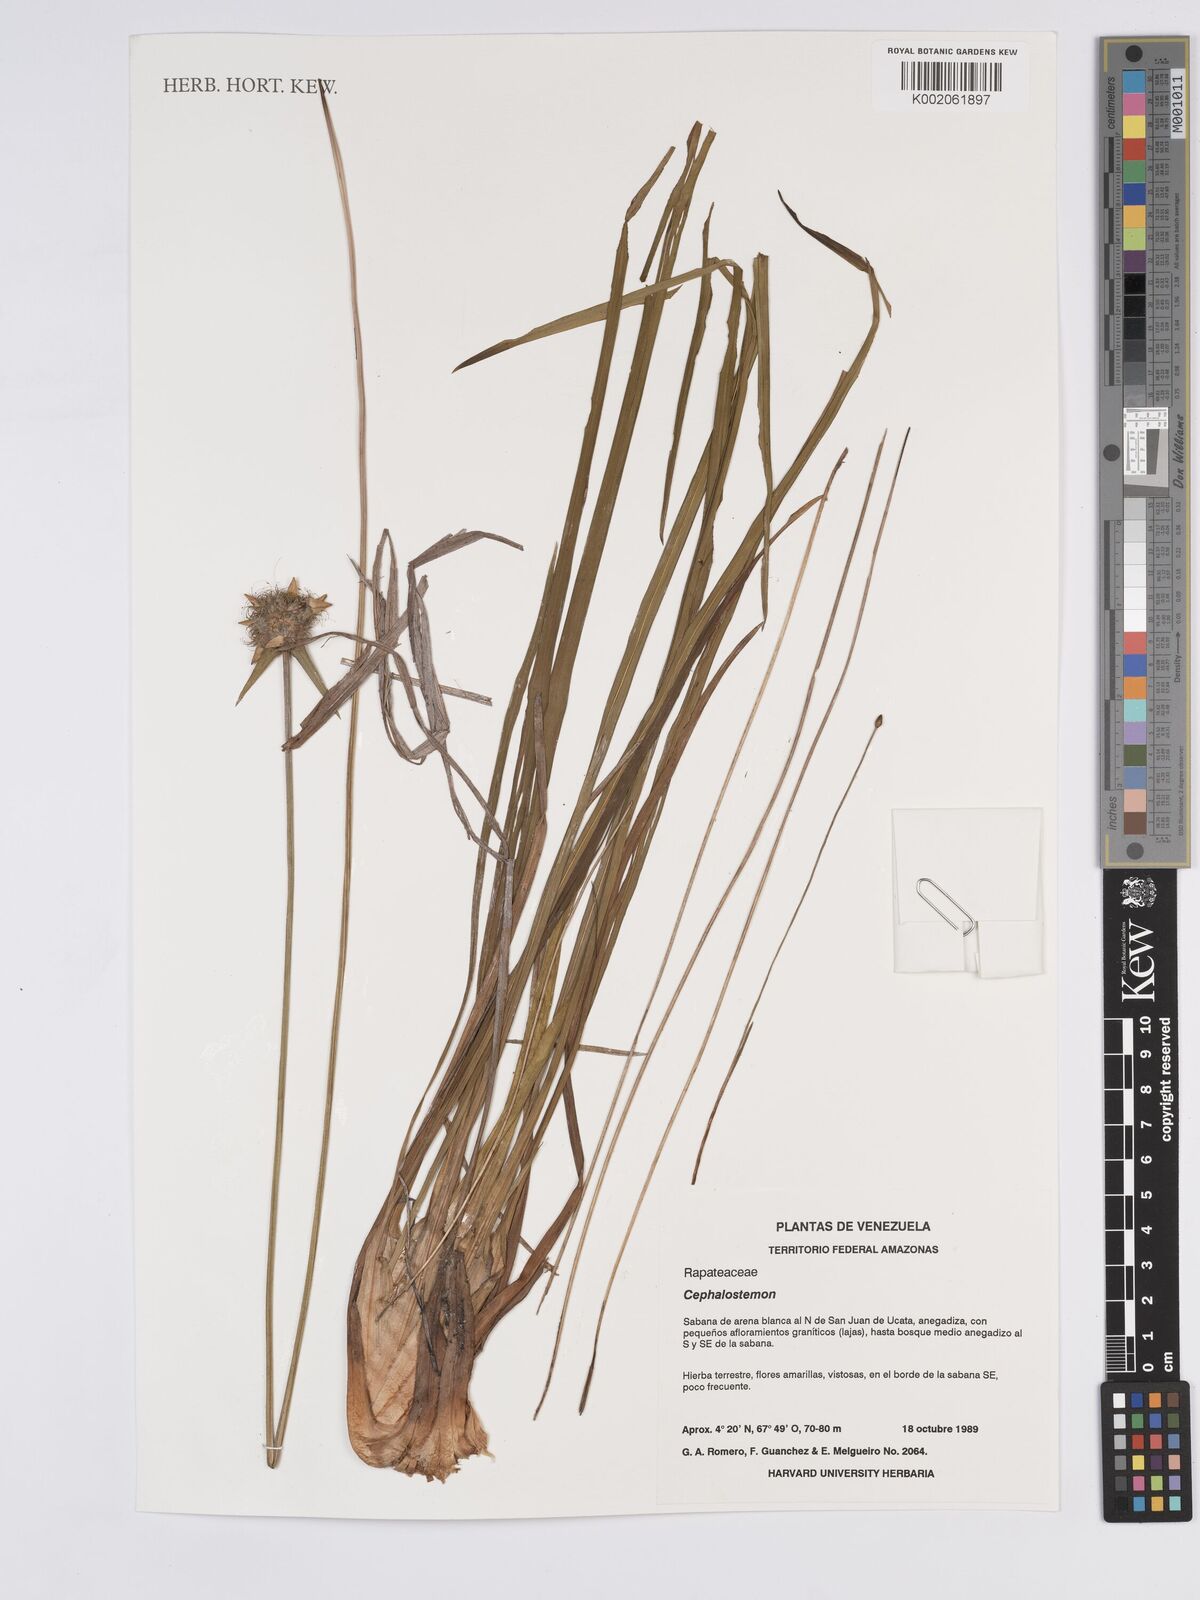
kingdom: Plantae
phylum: Tracheophyta
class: Liliopsida
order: Poales
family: Rapateaceae
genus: Cephalostemon
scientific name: Cephalostemon
